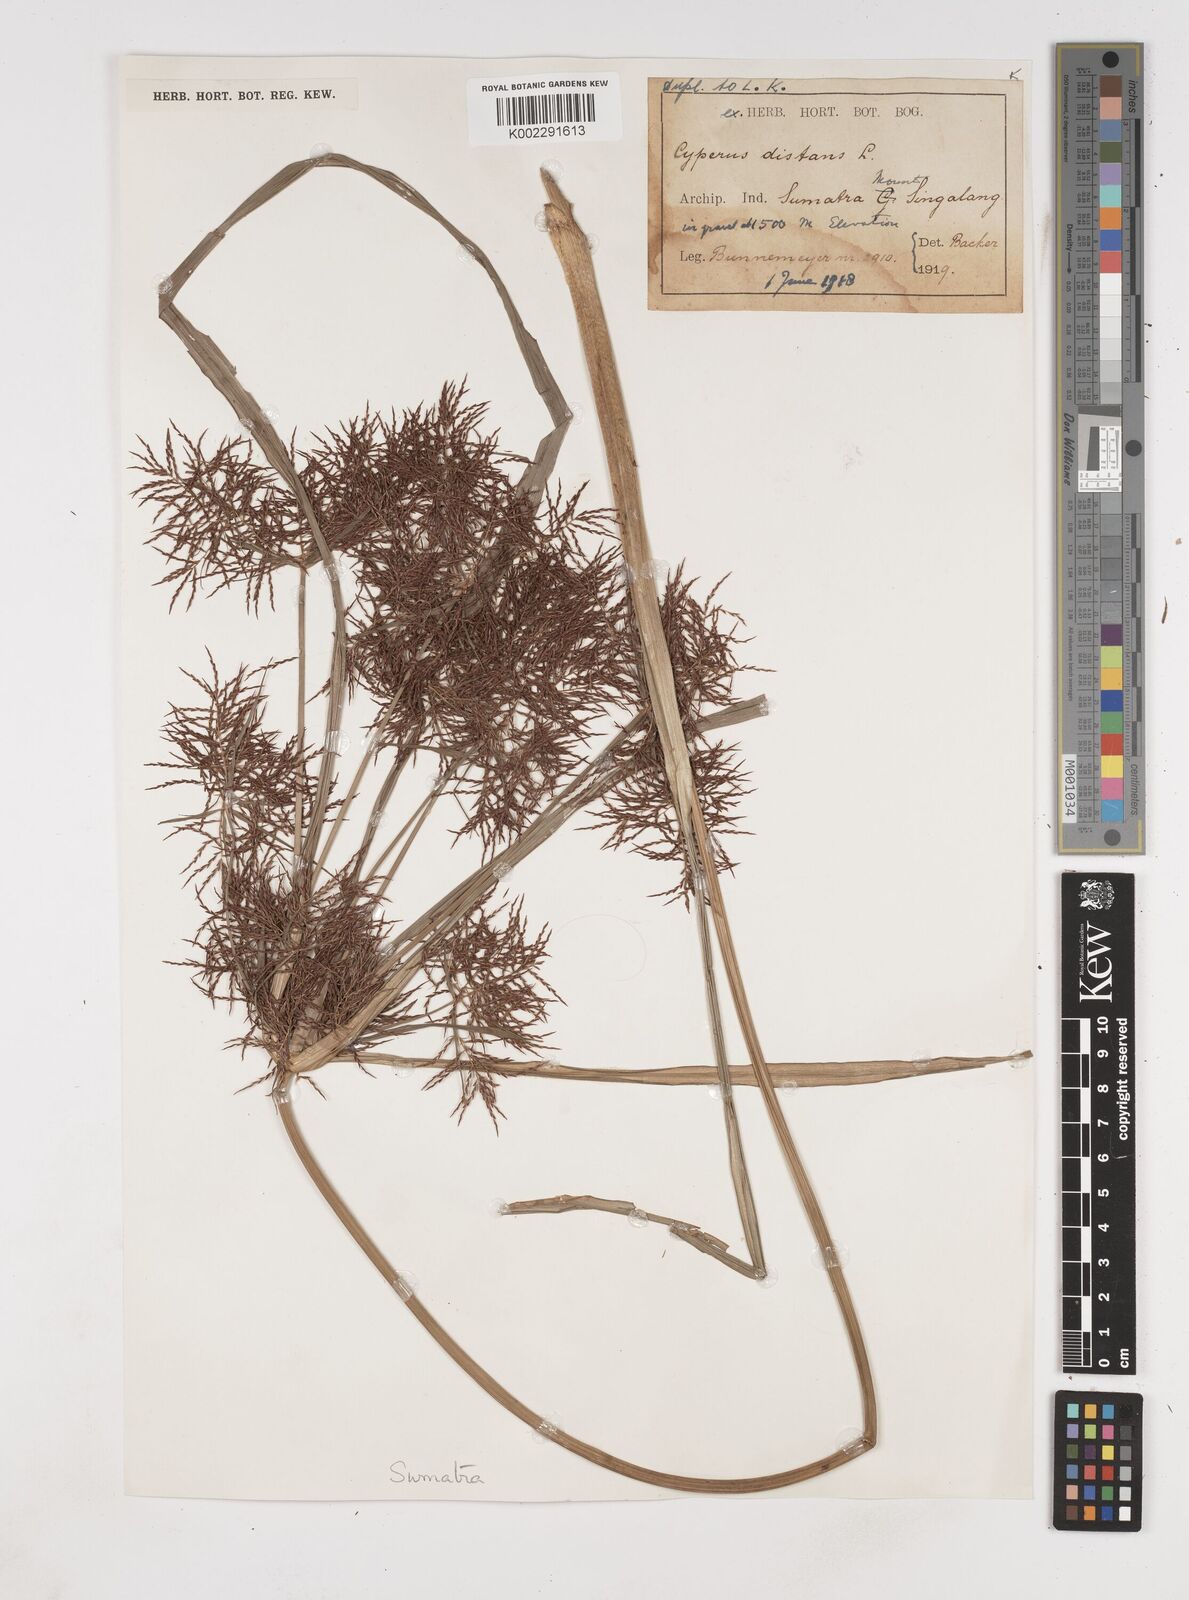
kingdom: Plantae
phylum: Tracheophyta
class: Liliopsida
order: Poales
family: Cyperaceae
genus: Cyperus
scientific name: Cyperus distans
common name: Slender cyperus
